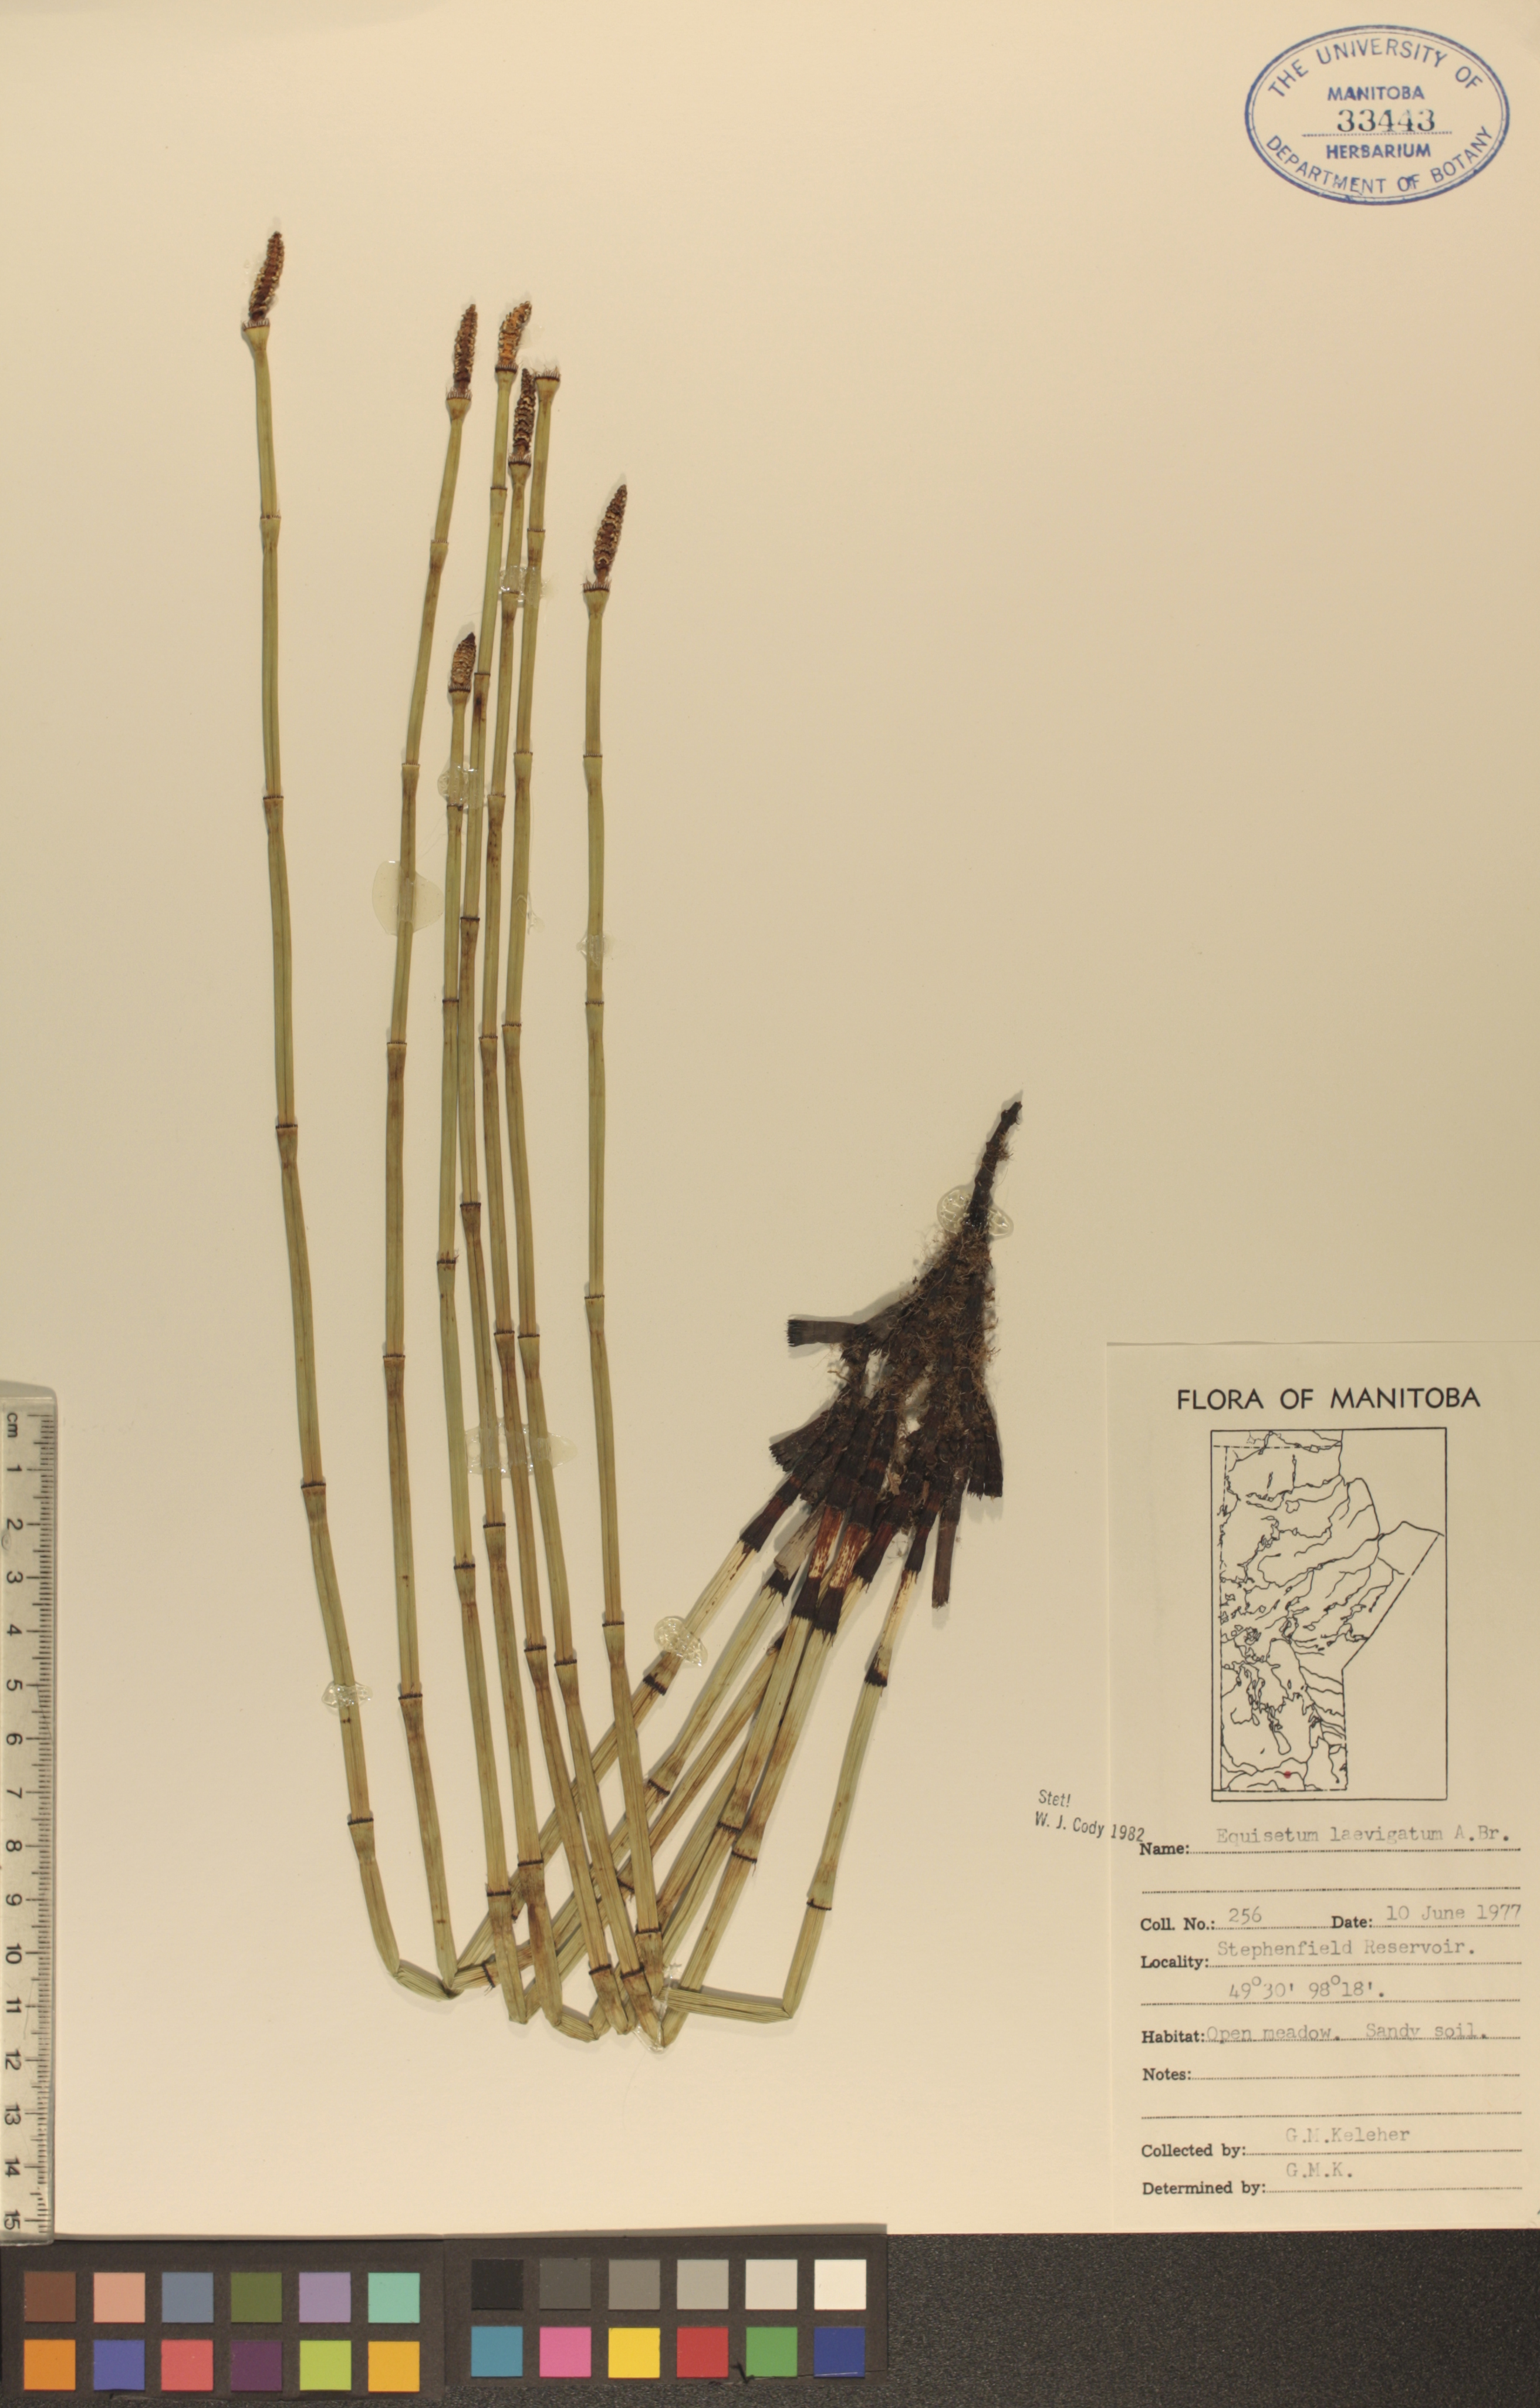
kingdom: Plantae
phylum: Tracheophyta
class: Polypodiopsida
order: Equisetales
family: Equisetaceae
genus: Equisetum
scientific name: Equisetum laevigatum
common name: Smooth scouring-rush
